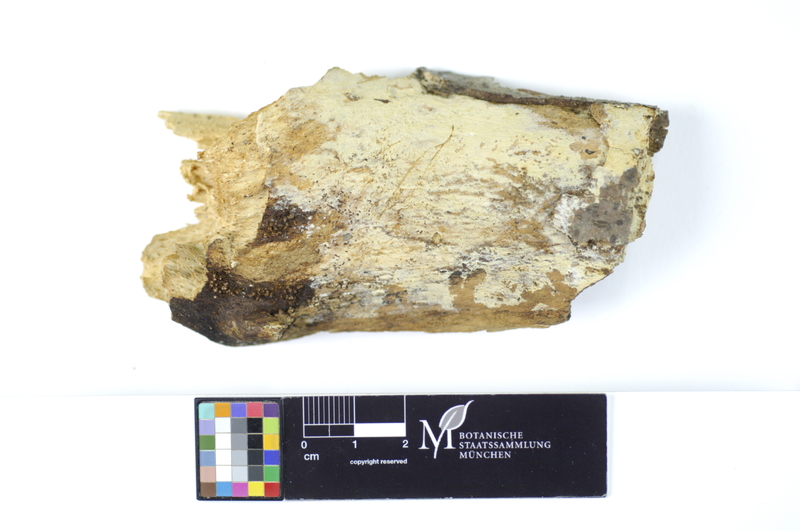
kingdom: Plantae
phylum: Tracheophyta
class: Magnoliopsida
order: Fagales
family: Fagaceae
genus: Fagus
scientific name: Fagus sylvatica
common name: Beech
